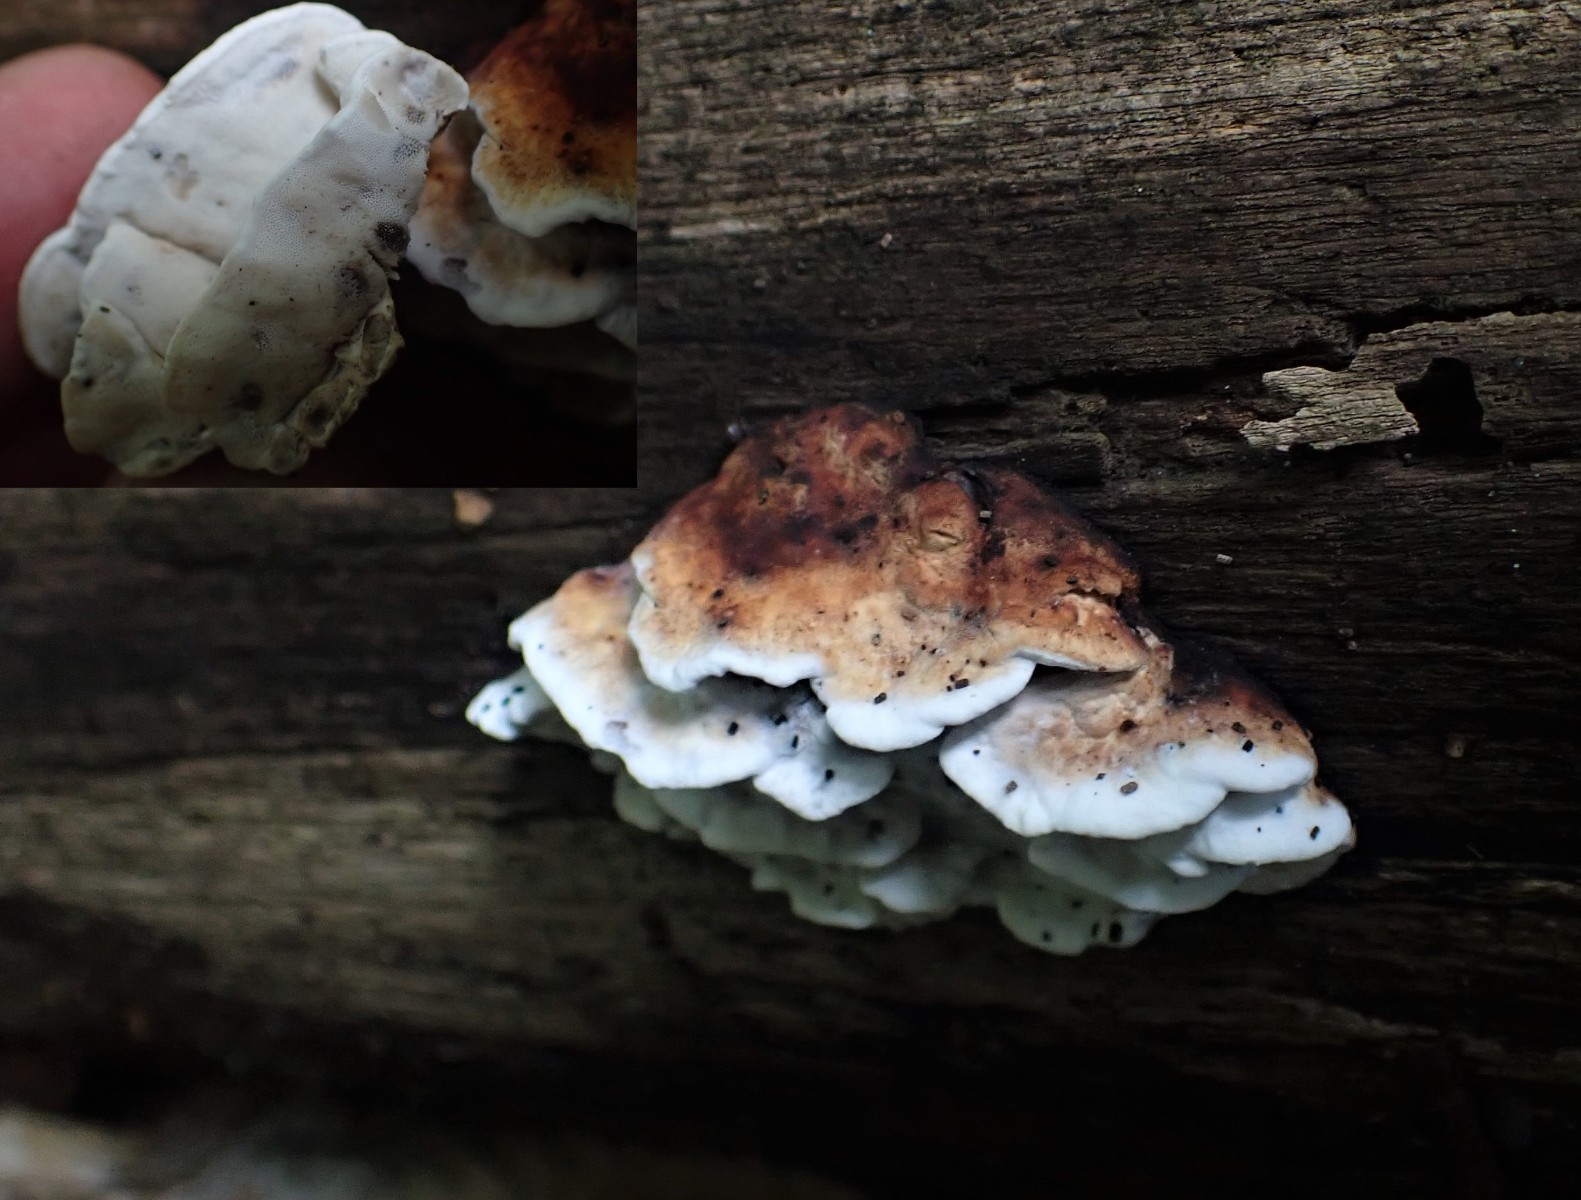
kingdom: Fungi
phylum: Basidiomycota
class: Agaricomycetes
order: Polyporales
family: Incrustoporiaceae
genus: Skeletocutis
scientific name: Skeletocutis nemoralis
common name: stor krystalporesvamp
